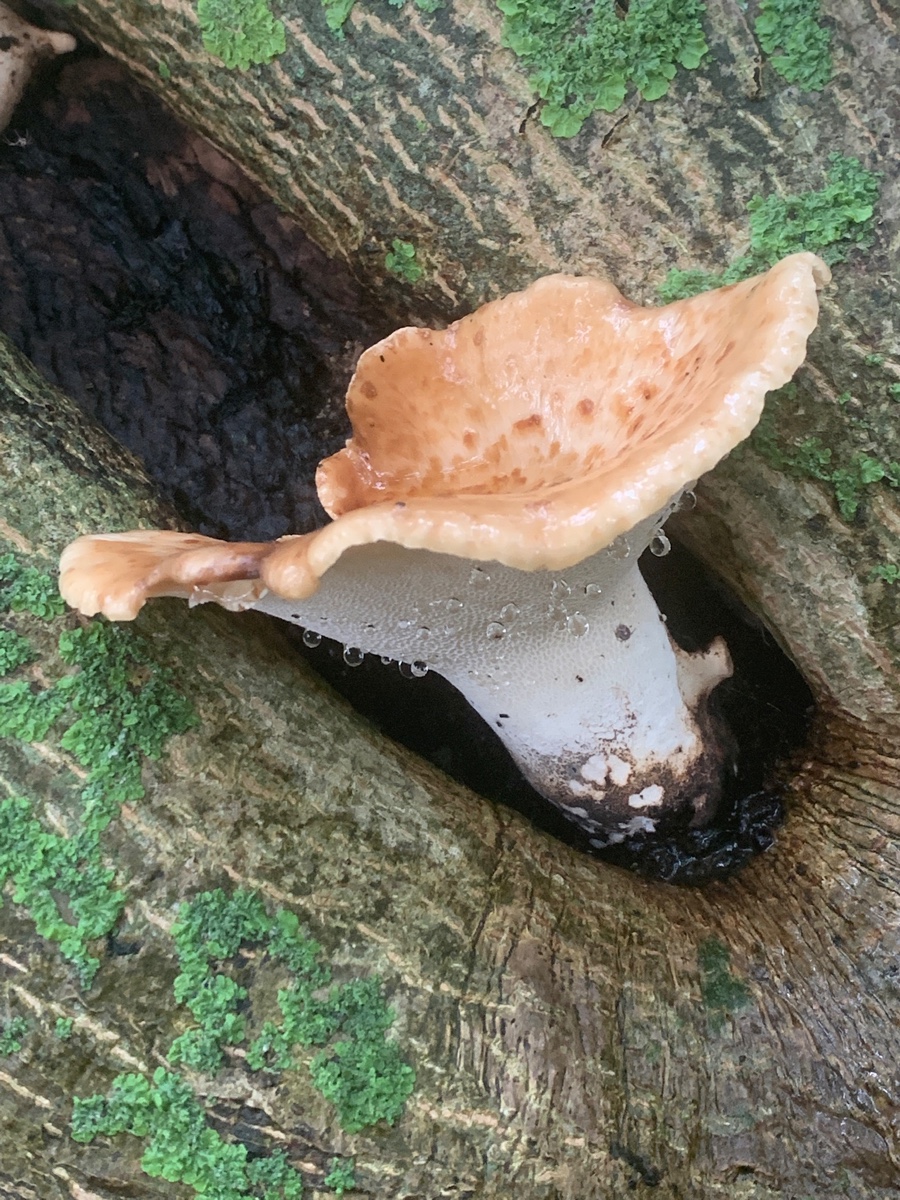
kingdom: Fungi
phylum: Basidiomycota
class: Agaricomycetes
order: Polyporales
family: Polyporaceae
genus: Cerioporus
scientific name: Cerioporus squamosus
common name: skællet stilkporesvamp
